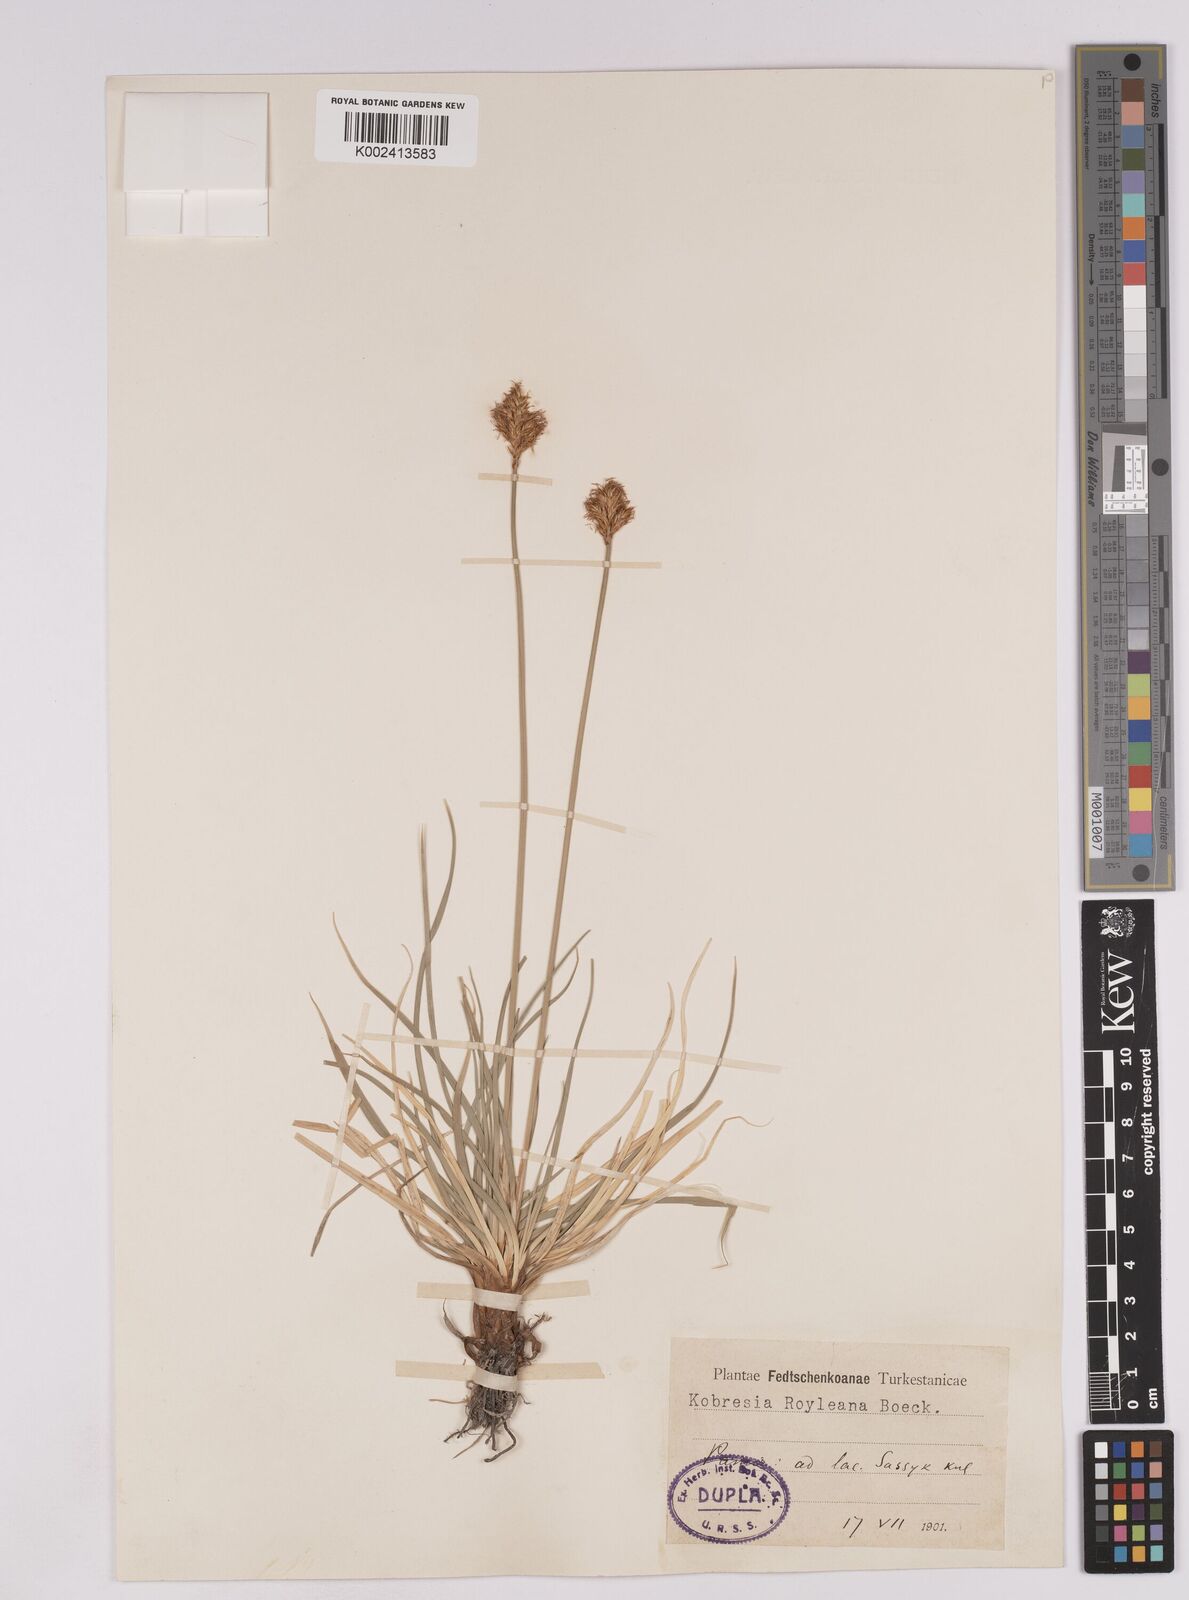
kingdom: Plantae
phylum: Tracheophyta
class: Liliopsida
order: Poales
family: Cyperaceae
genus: Carex
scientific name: Carex kokanica
